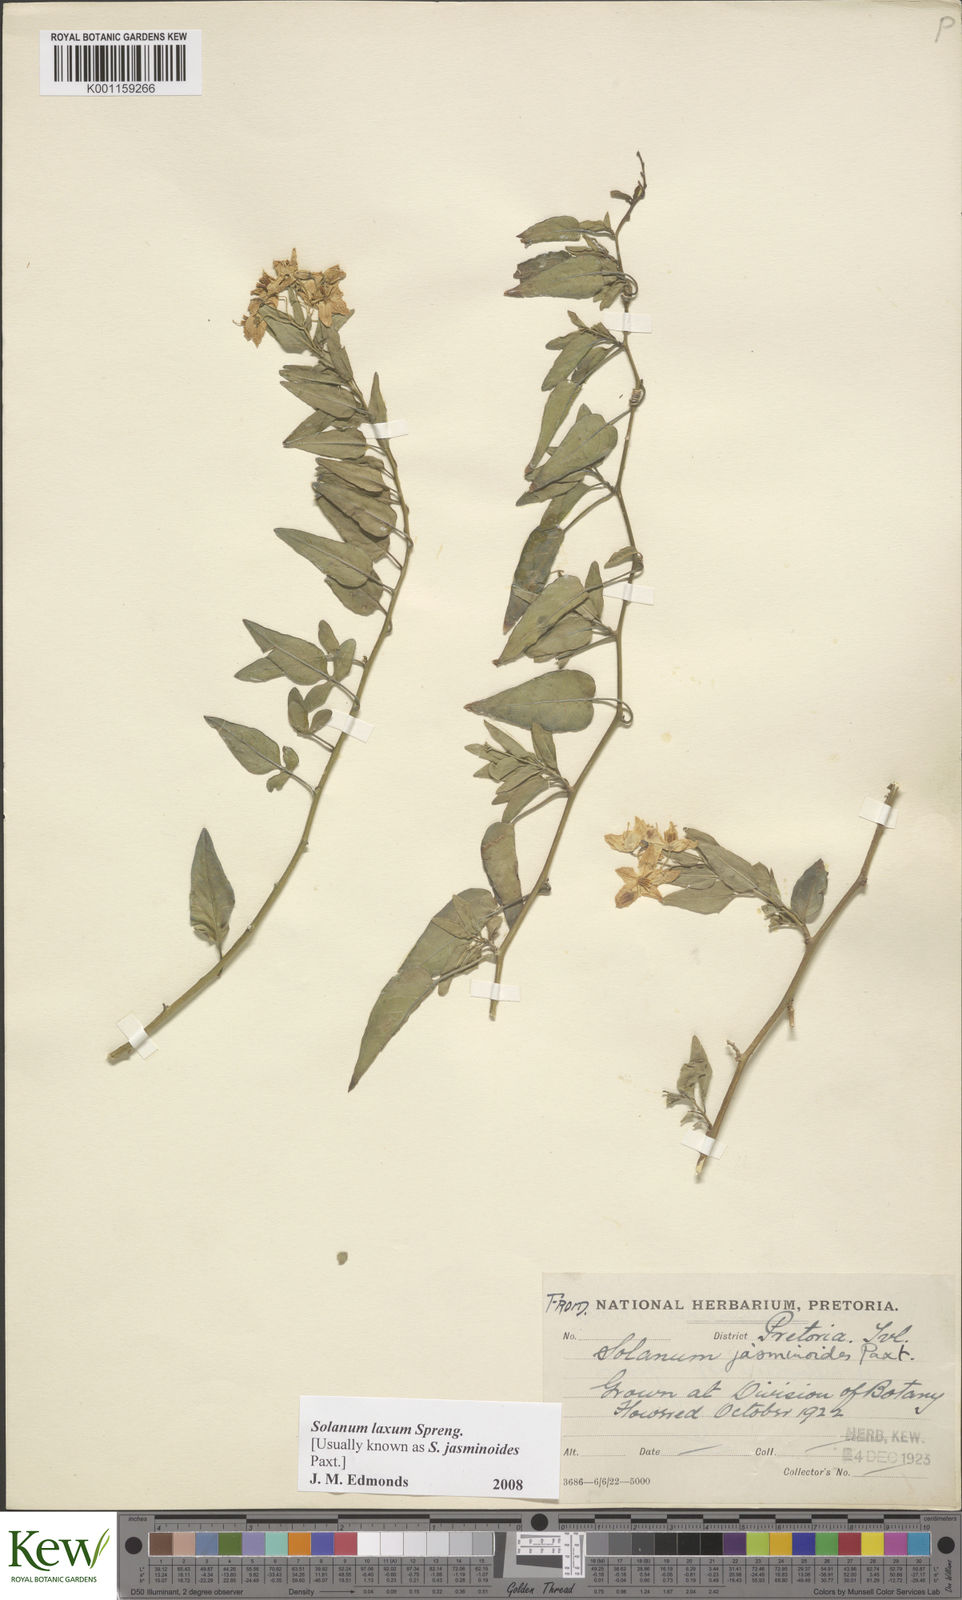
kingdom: Plantae
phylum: Tracheophyta
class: Magnoliopsida
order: Solanales
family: Solanaceae
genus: Solanum
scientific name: Solanum laxum
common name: Nightshade
